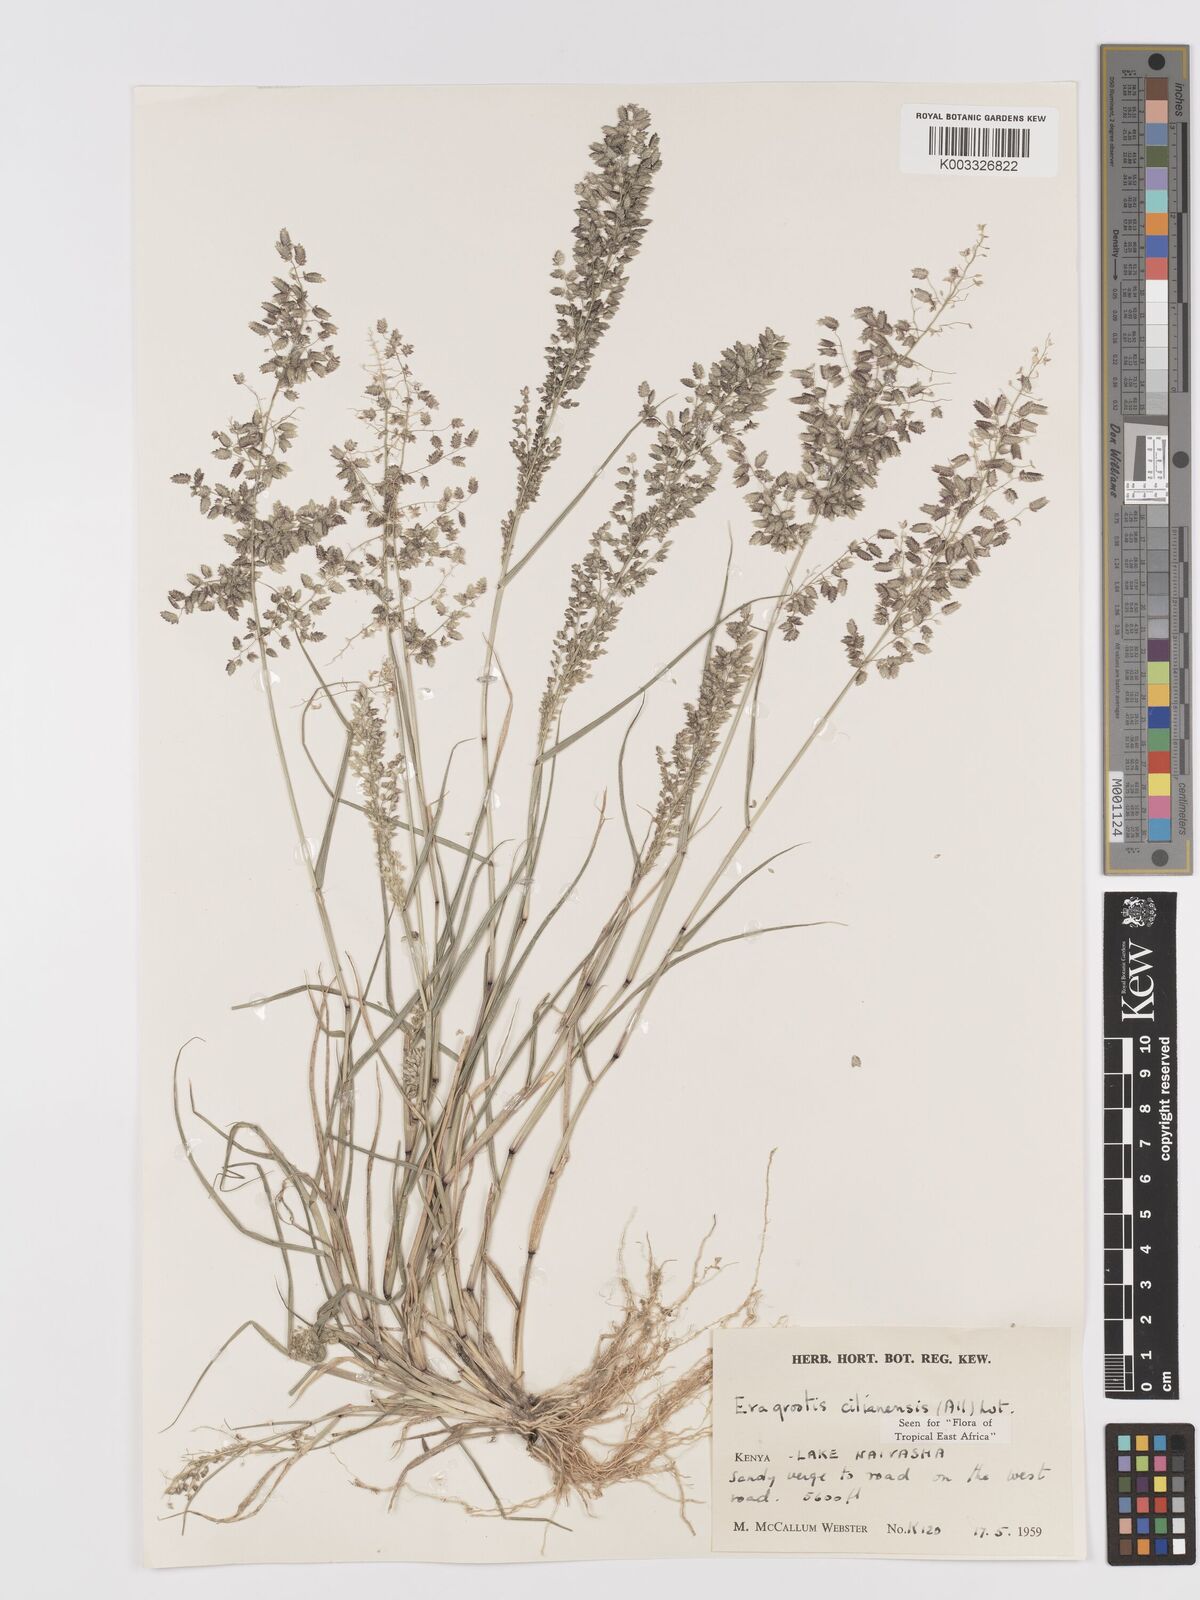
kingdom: Plantae
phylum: Tracheophyta
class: Liliopsida
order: Poales
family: Poaceae
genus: Eragrostis
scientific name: Eragrostis cilianensis
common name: Stinkgrass
